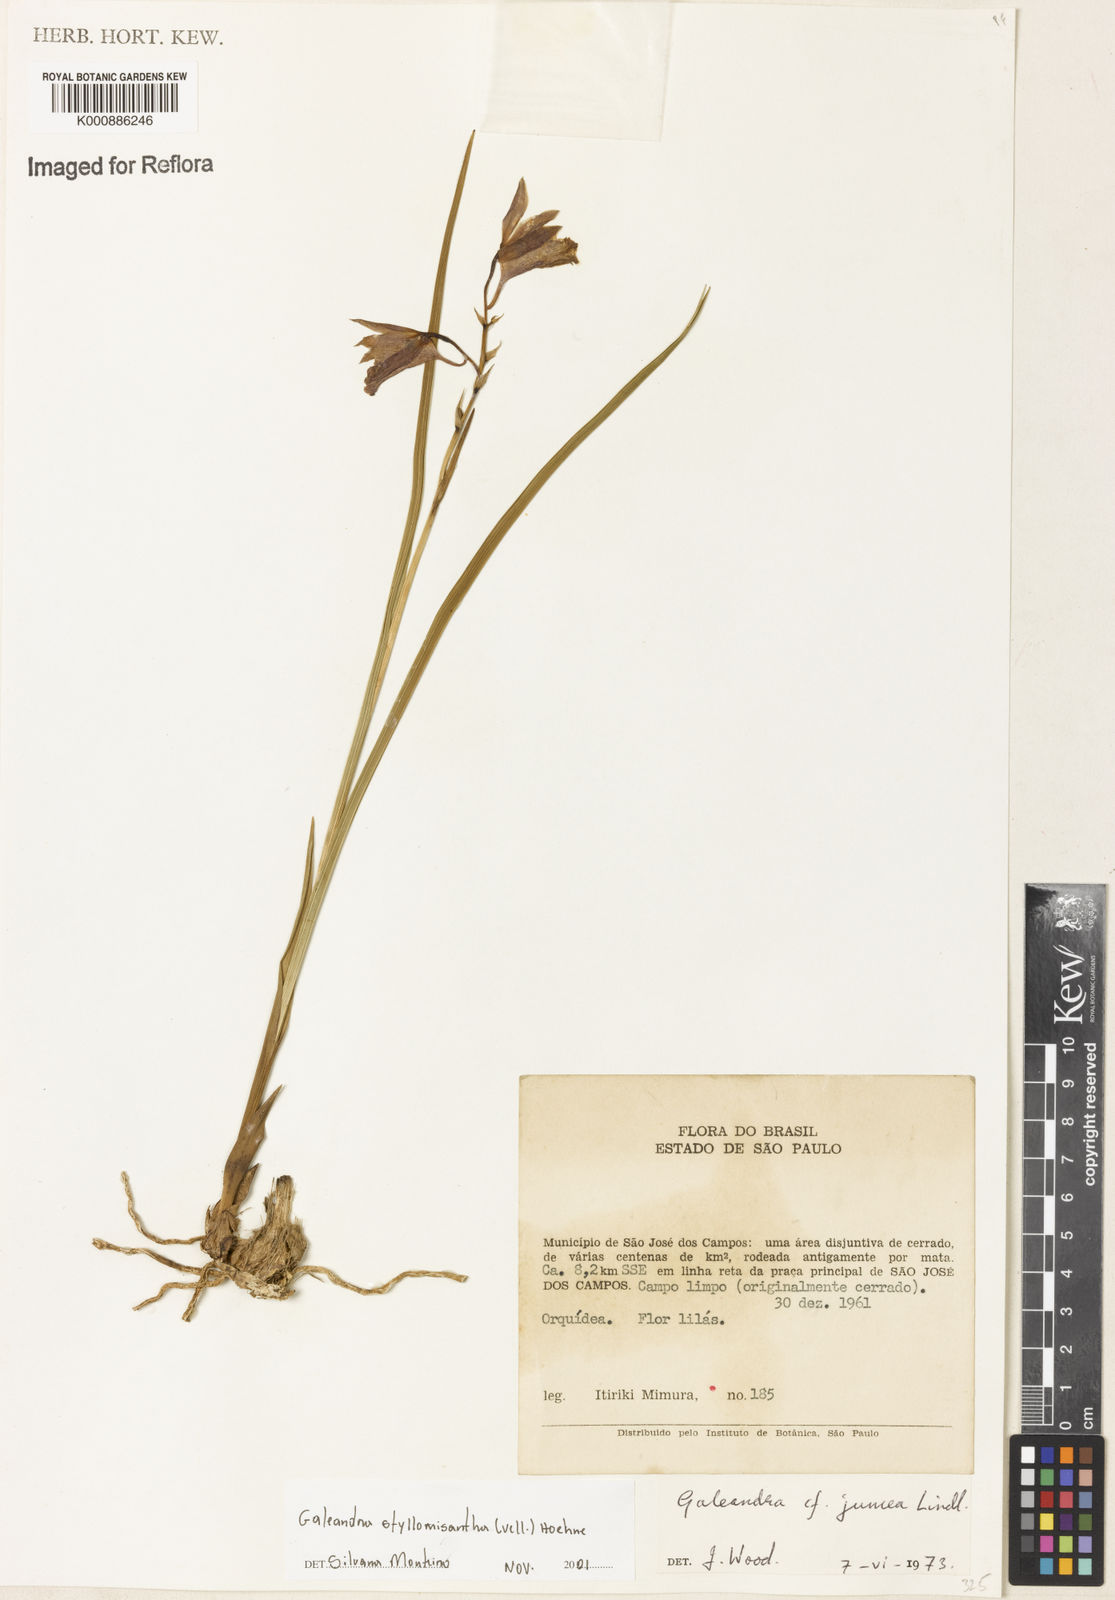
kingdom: Plantae
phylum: Tracheophyta
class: Liliopsida
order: Asparagales
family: Orchidaceae
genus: Galeandra
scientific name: Galeandra styllomisantha
